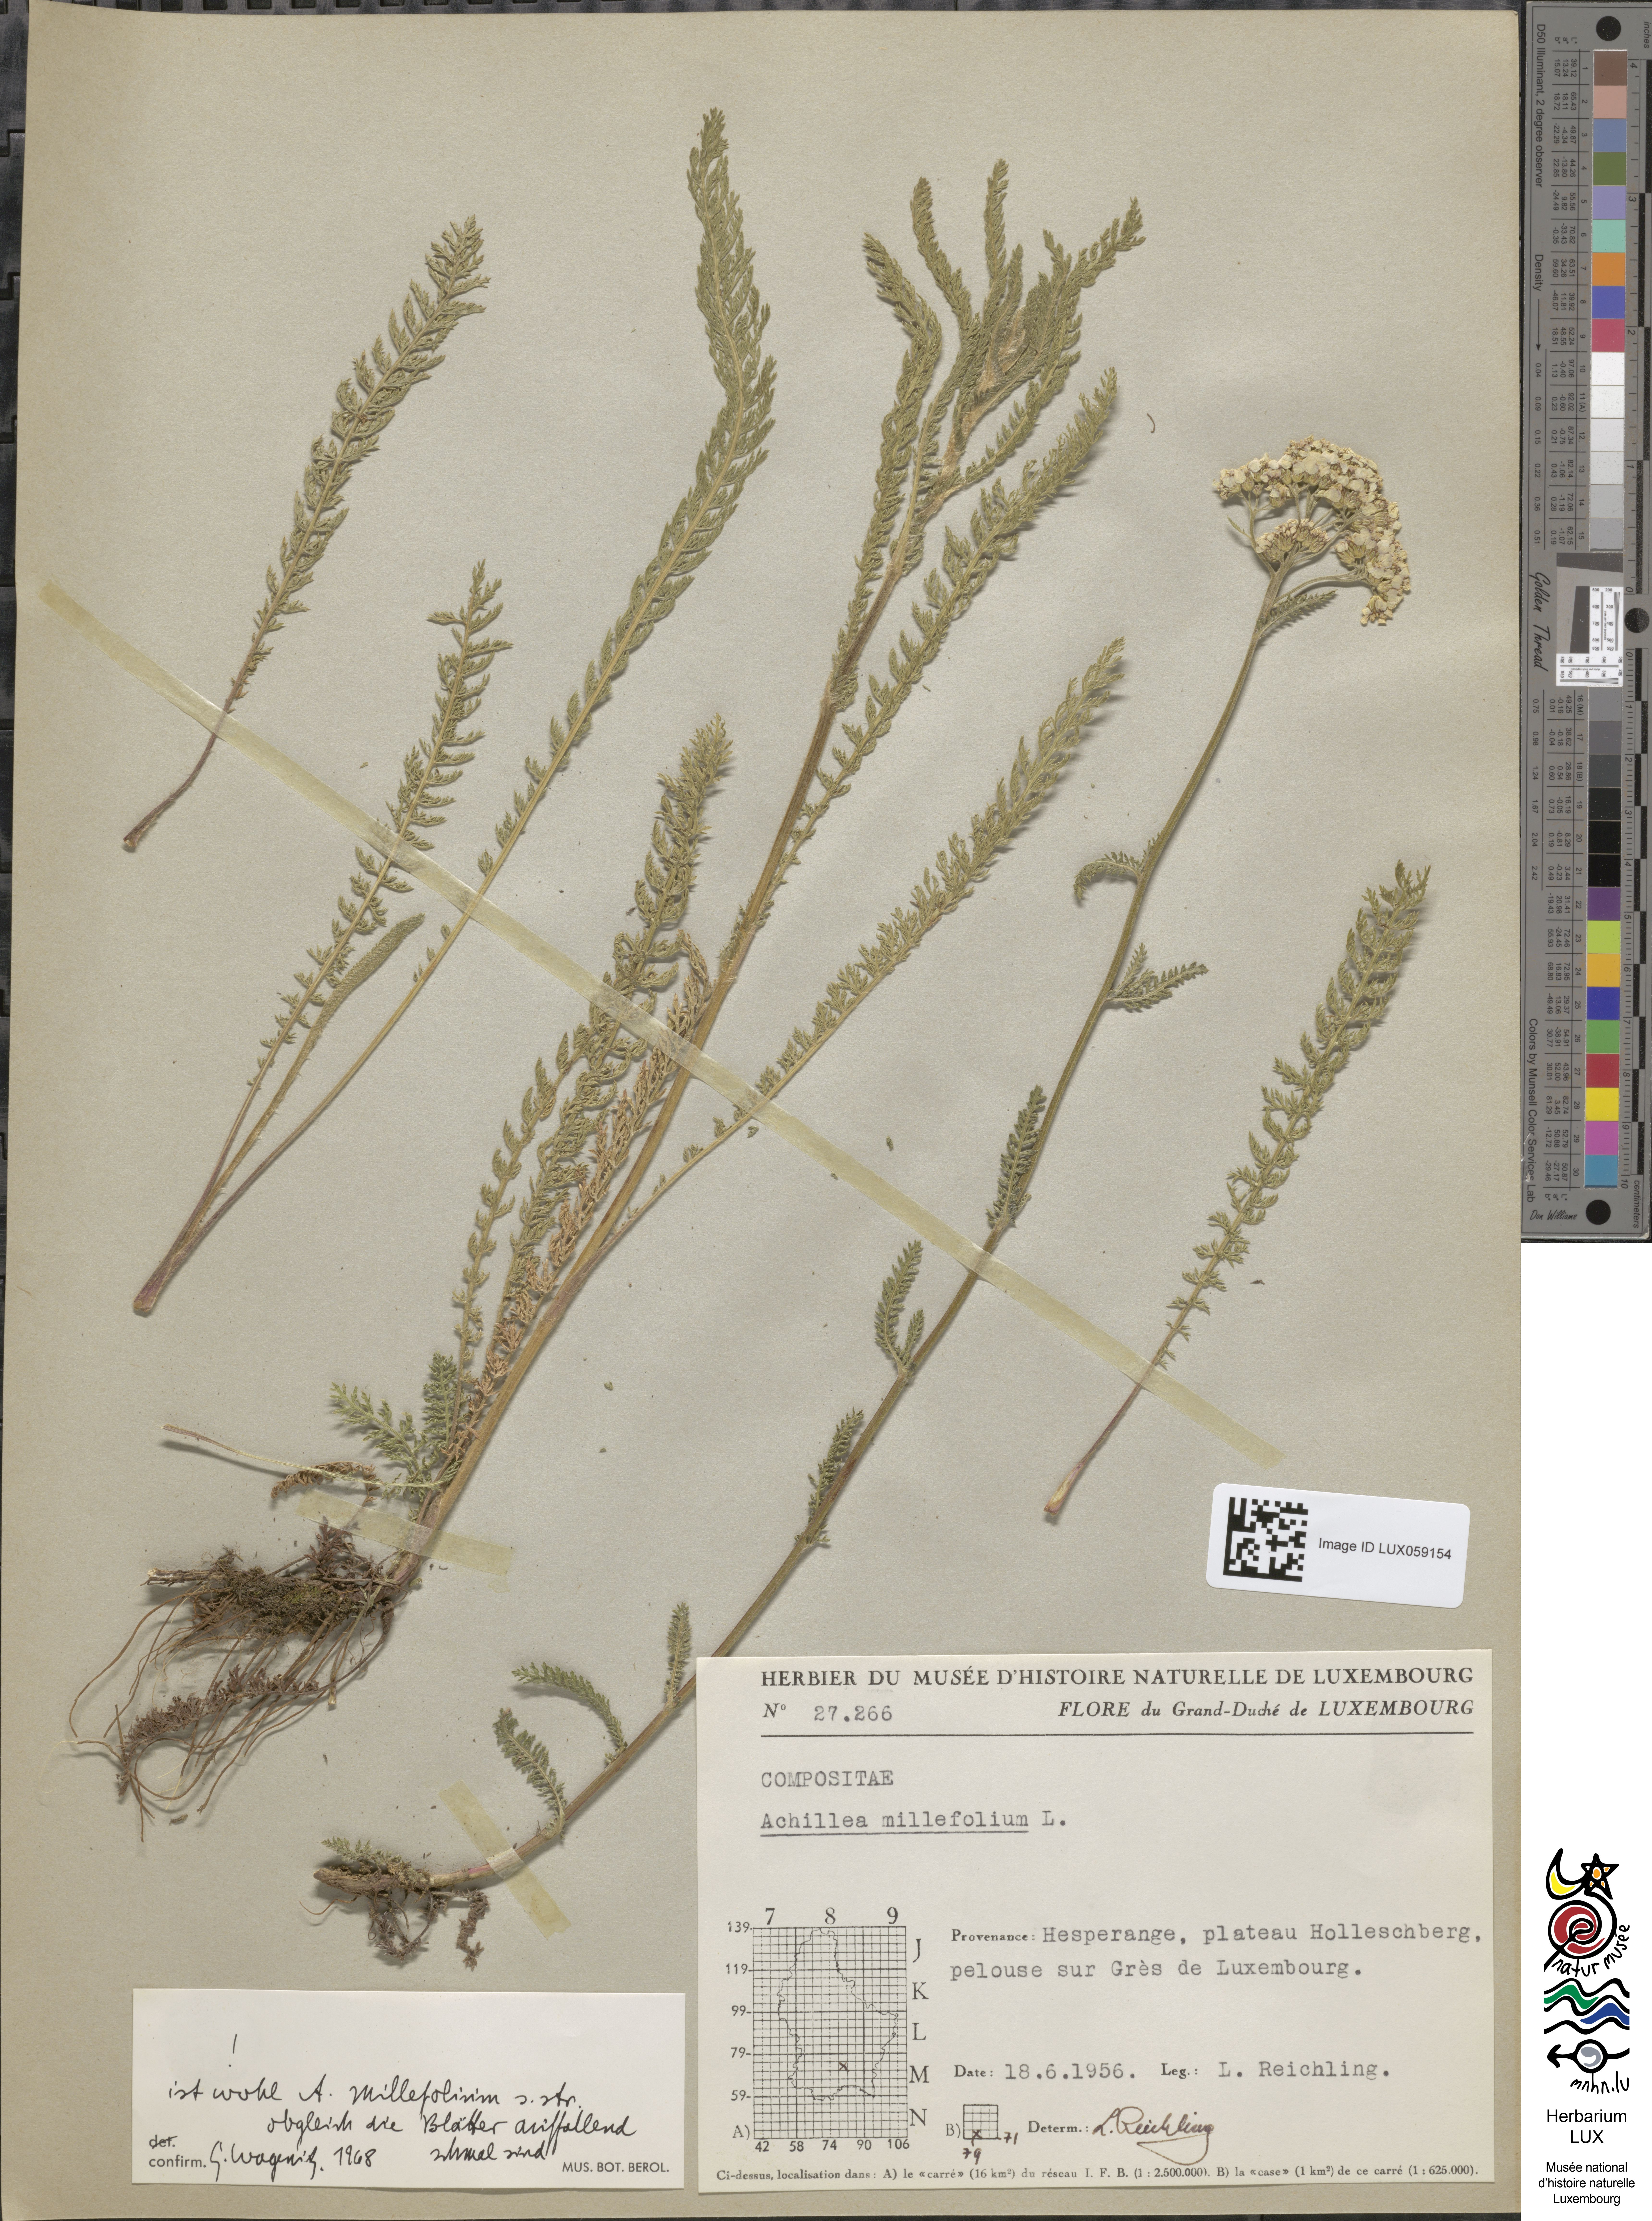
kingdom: Plantae
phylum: Tracheophyta
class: Magnoliopsida
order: Asterales
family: Asteraceae
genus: Achillea
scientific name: Achillea millefolium
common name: Yarrow
